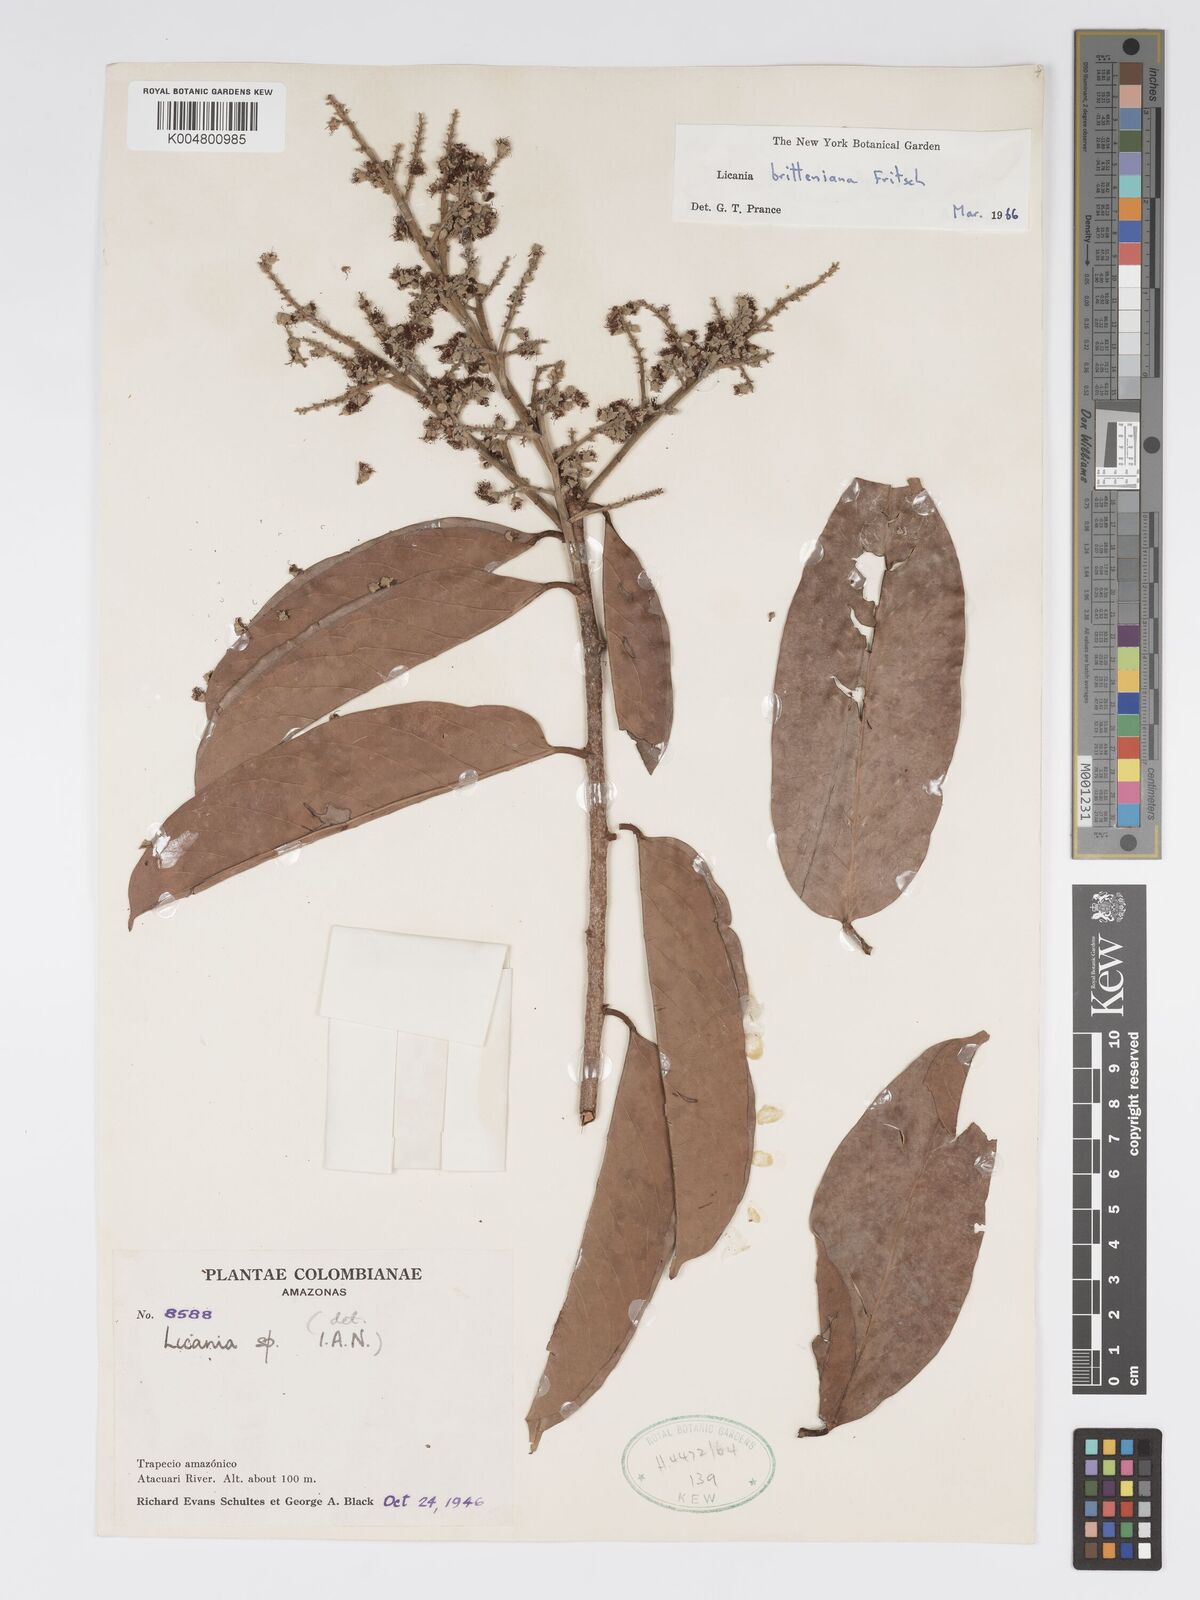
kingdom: Plantae
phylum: Tracheophyta
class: Magnoliopsida
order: Malpighiales
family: Chrysobalanaceae
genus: Moquilea
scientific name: Moquilea brittoniana
